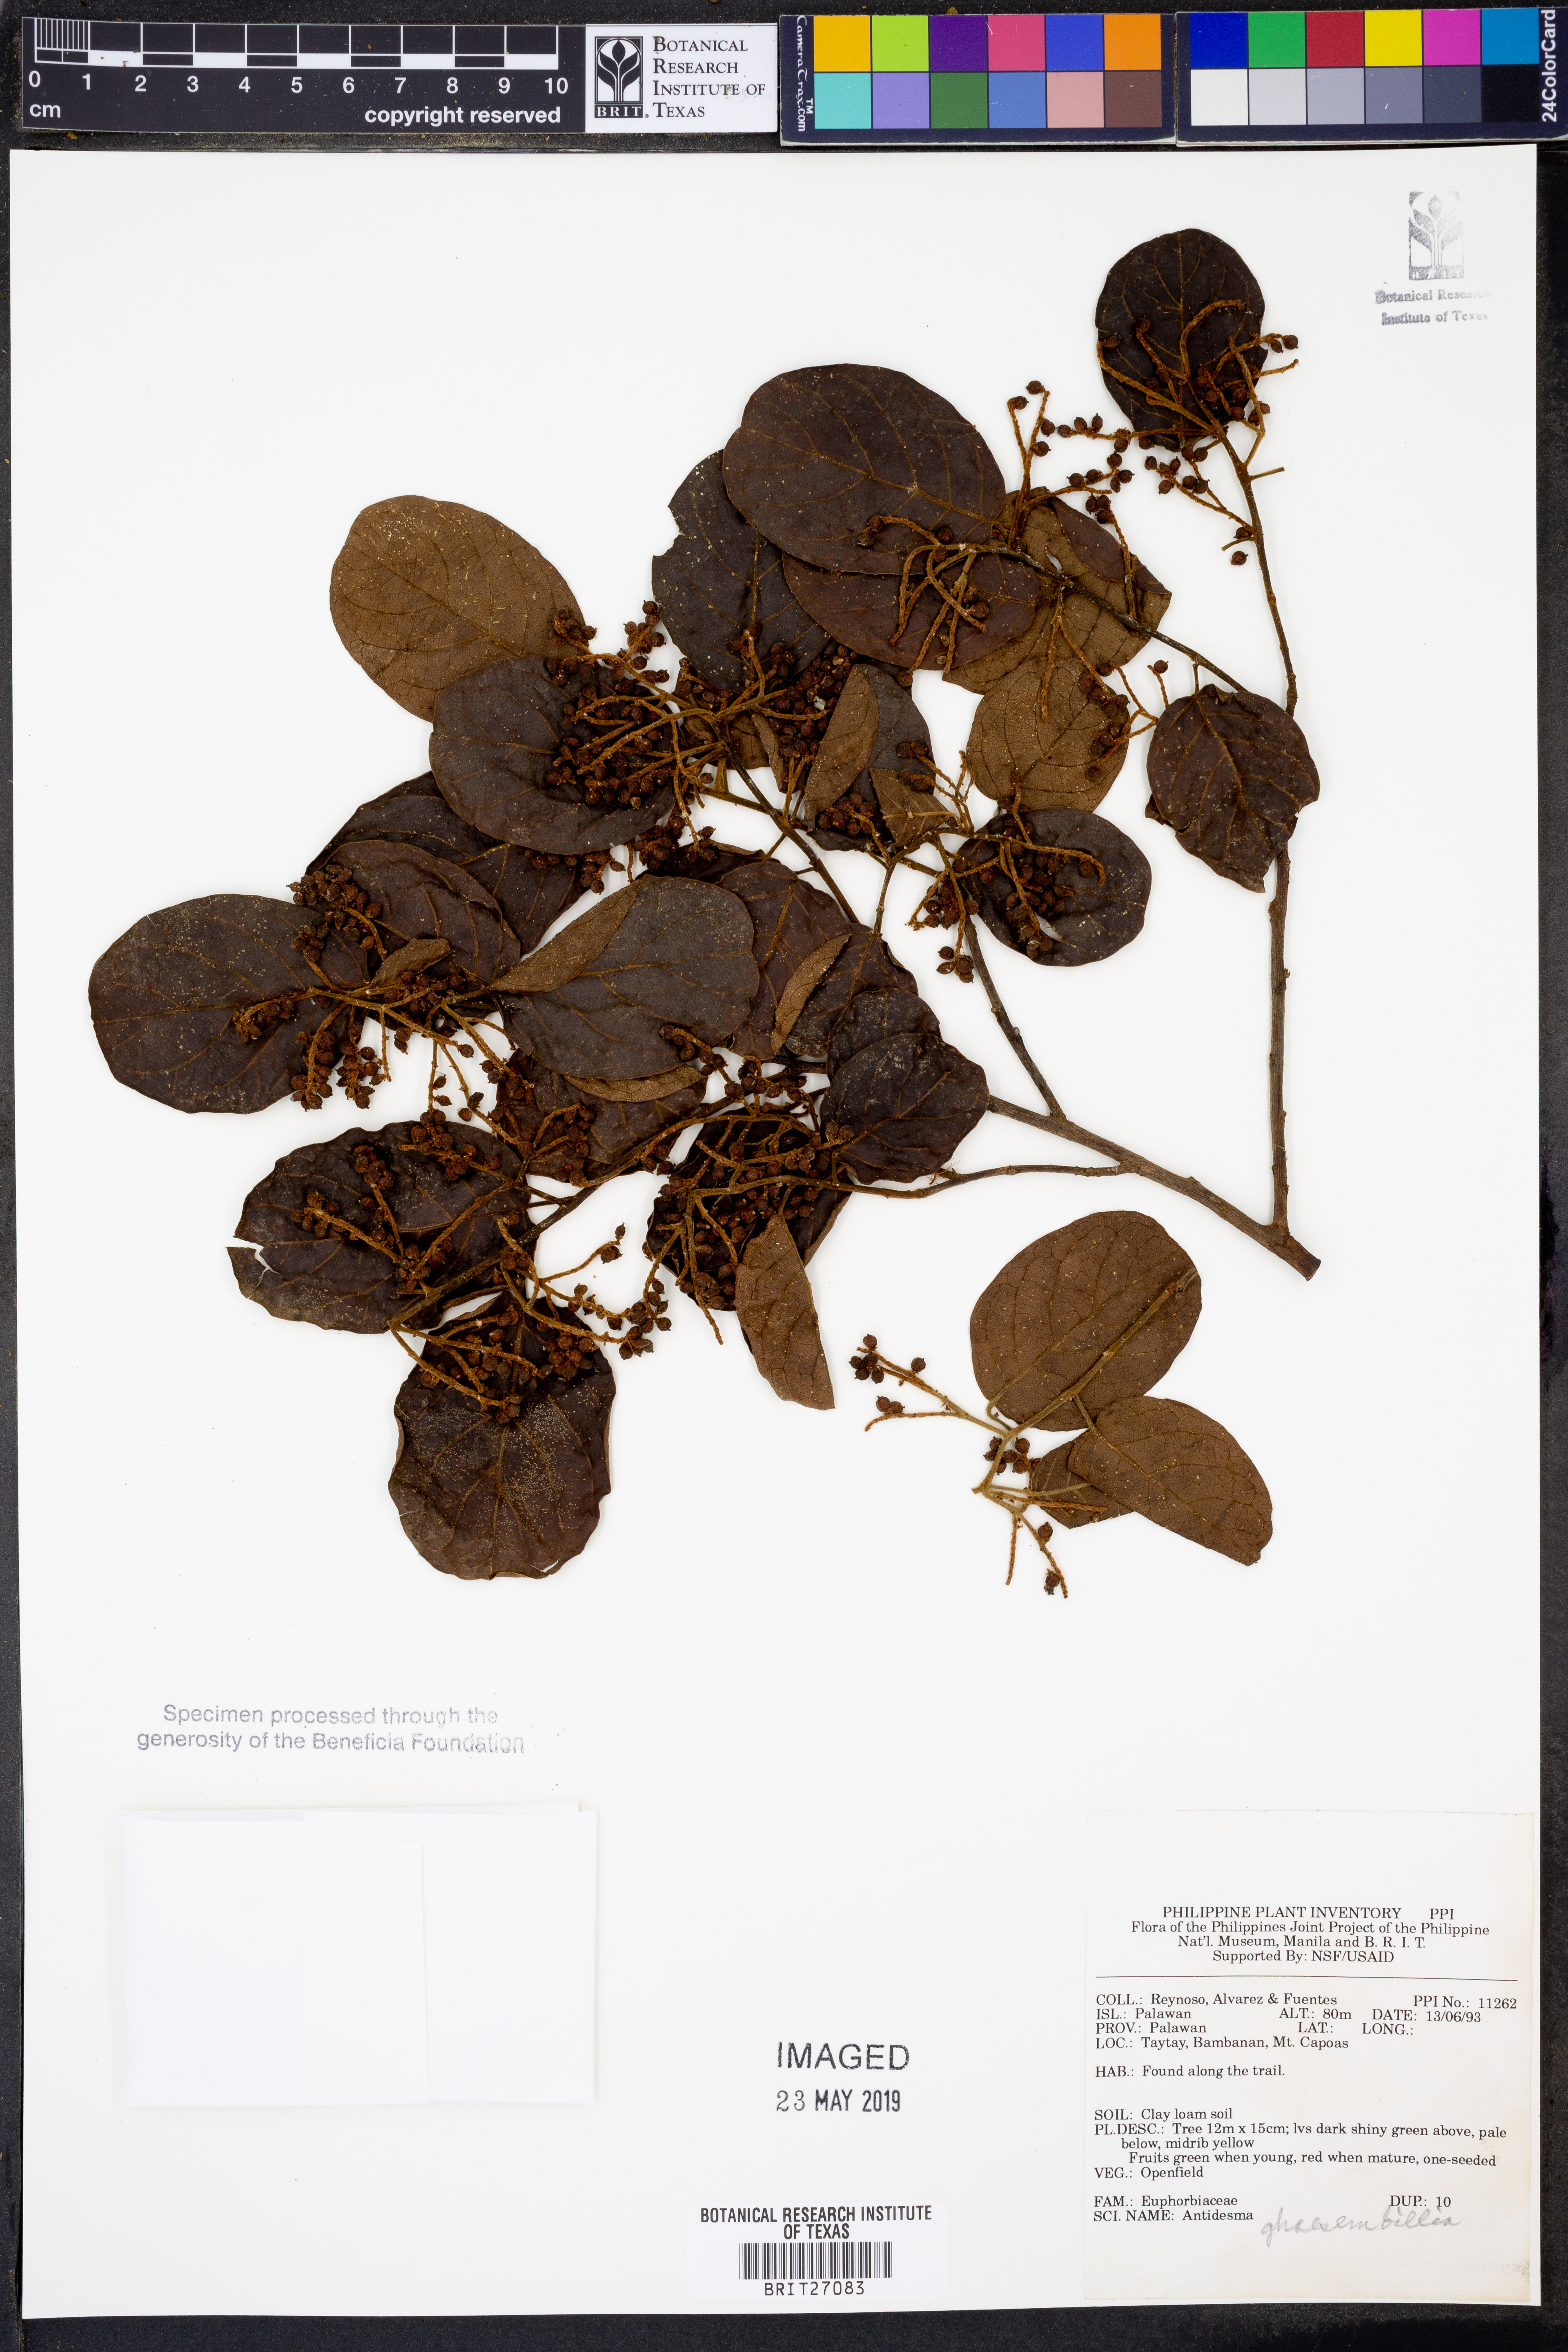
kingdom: Plantae
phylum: Tracheophyta
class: Magnoliopsida
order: Malpighiales
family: Phyllanthaceae
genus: Antidesma
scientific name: Antidesma ghaesembilla
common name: Black currant-tree
